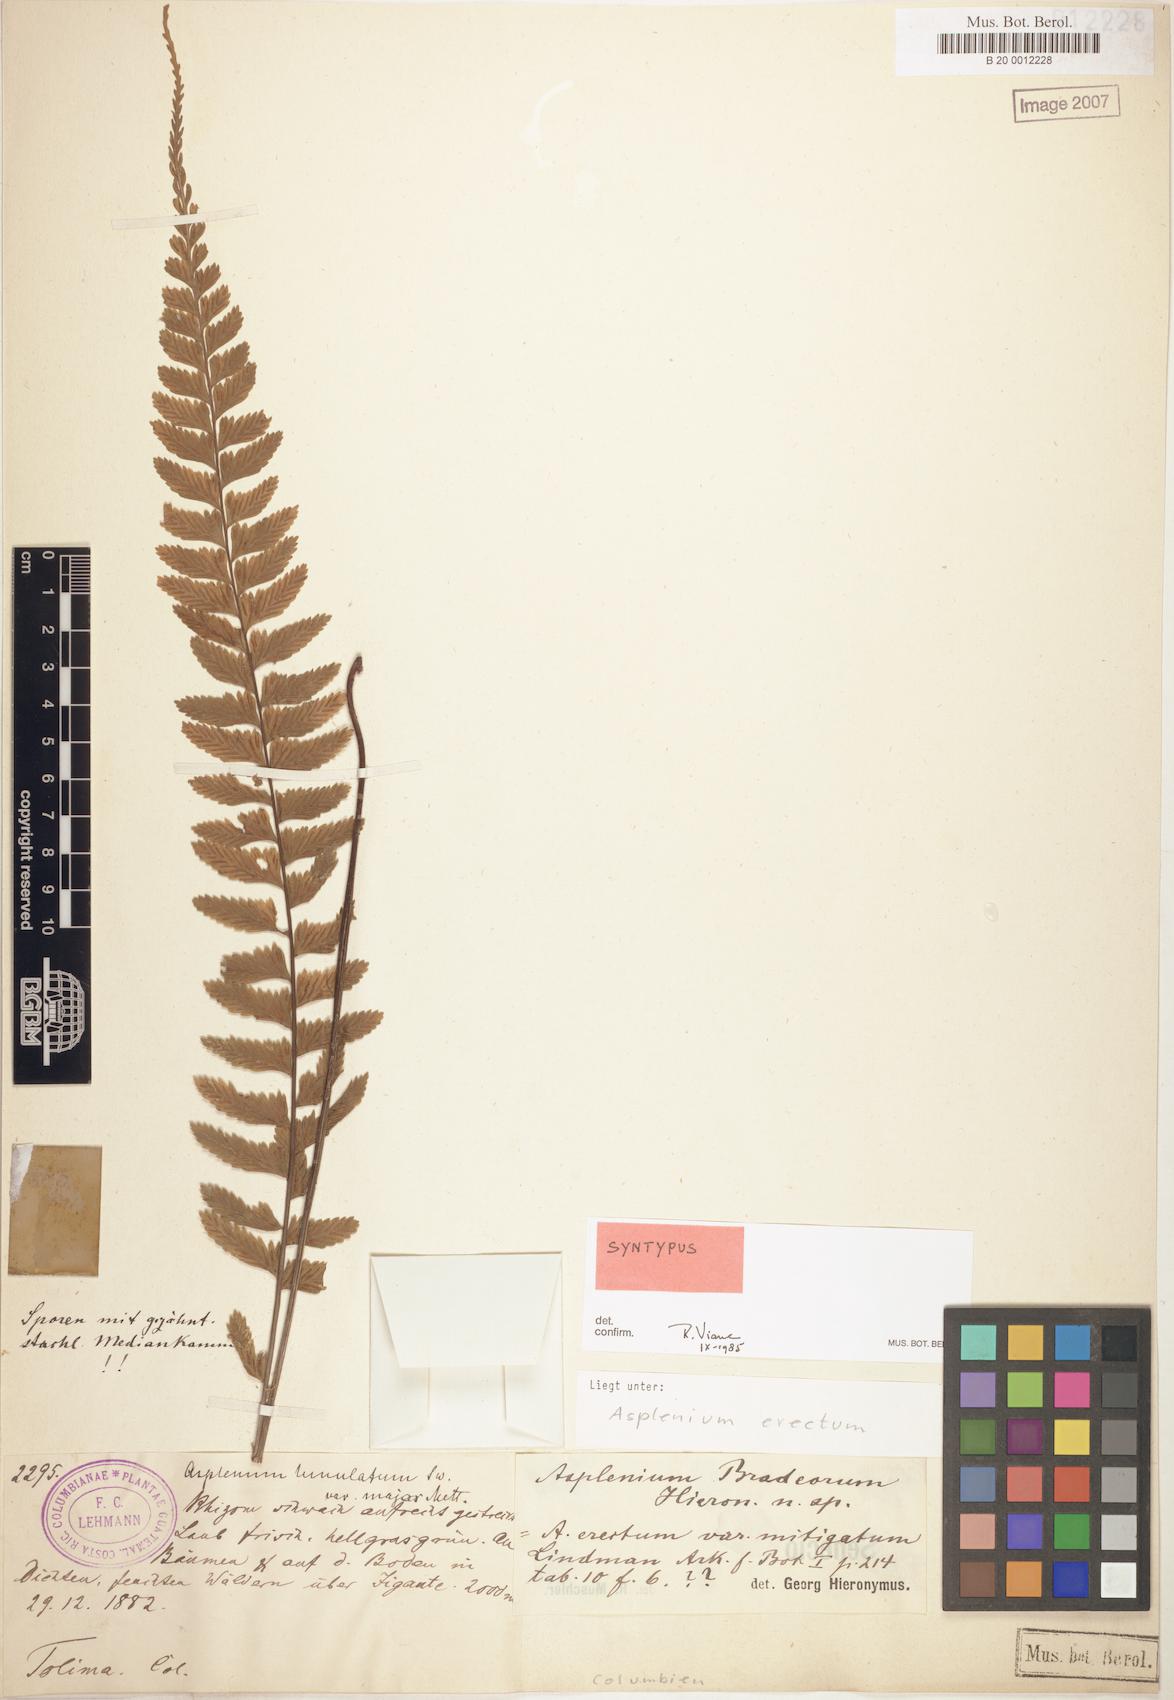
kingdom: Plantae
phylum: Tracheophyta
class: Polypodiopsida
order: Polypodiales
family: Aspleniaceae
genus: Asplenium
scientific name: Asplenium miradorense
